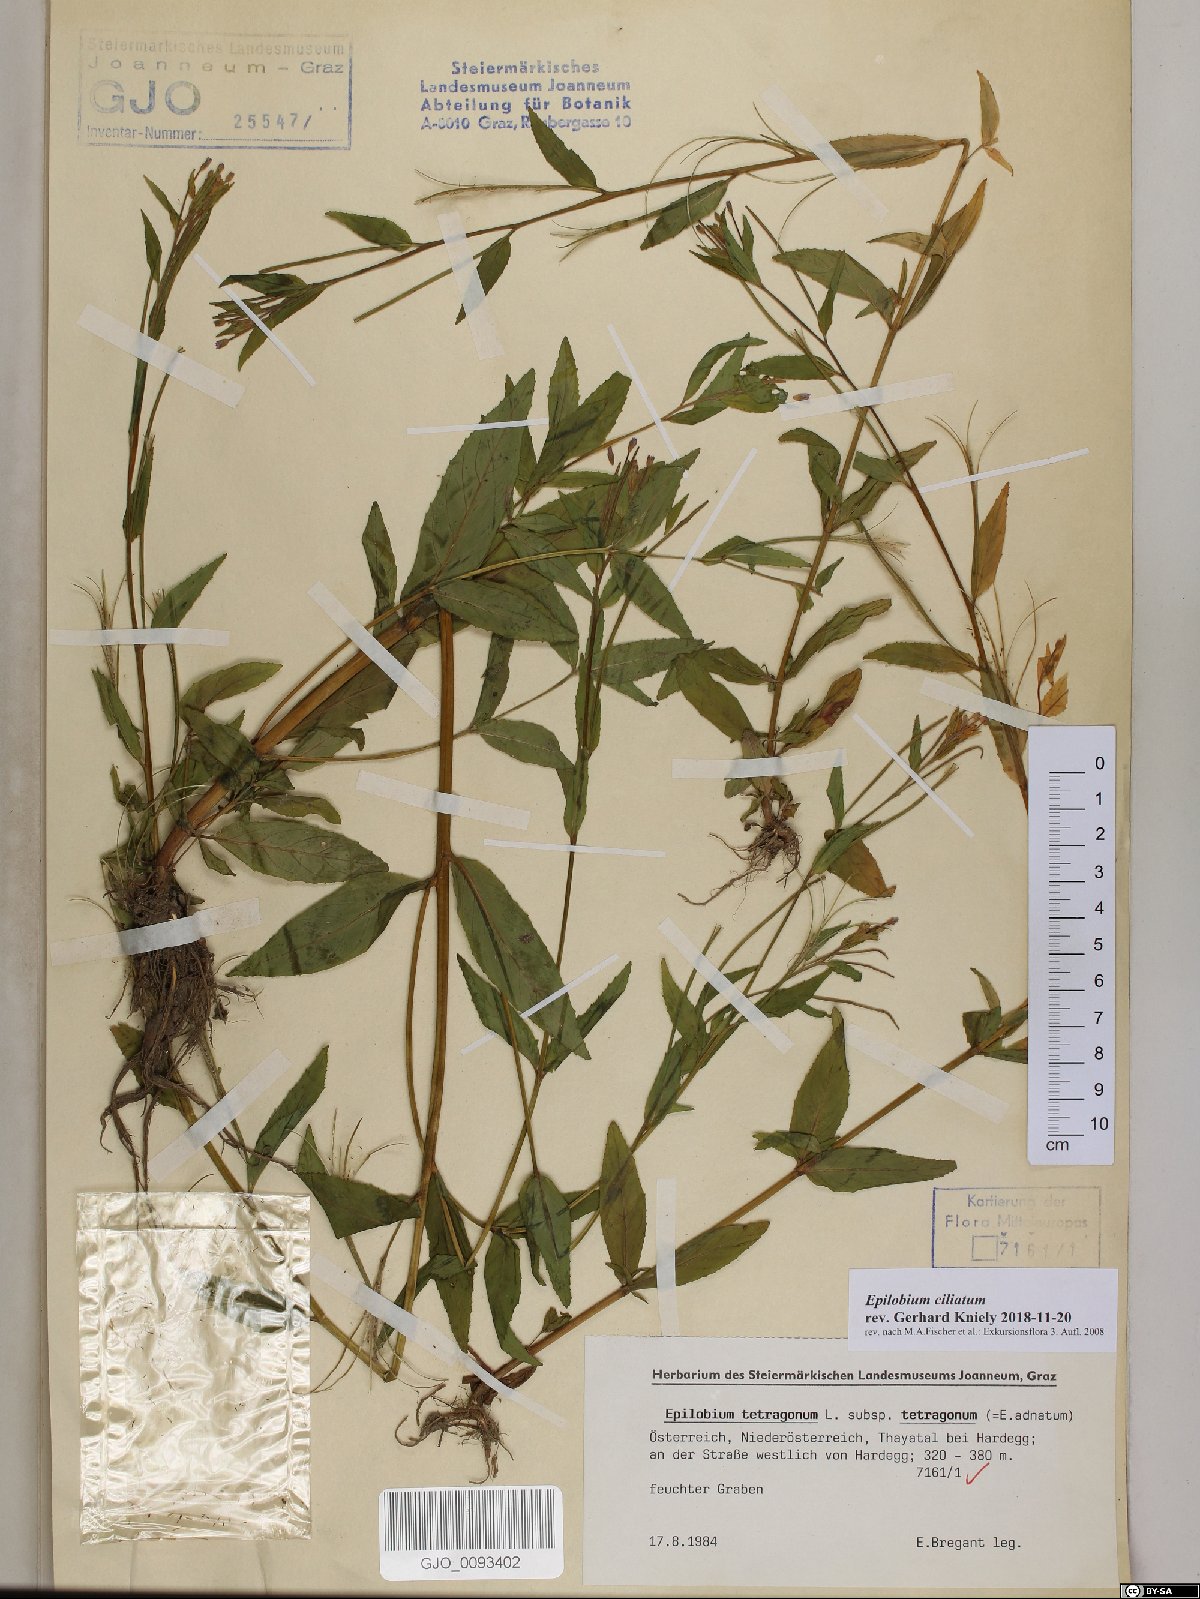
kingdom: Plantae
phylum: Tracheophyta
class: Magnoliopsida
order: Myrtales
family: Onagraceae
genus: Epilobium
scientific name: Epilobium ciliatum
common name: American willowherb
